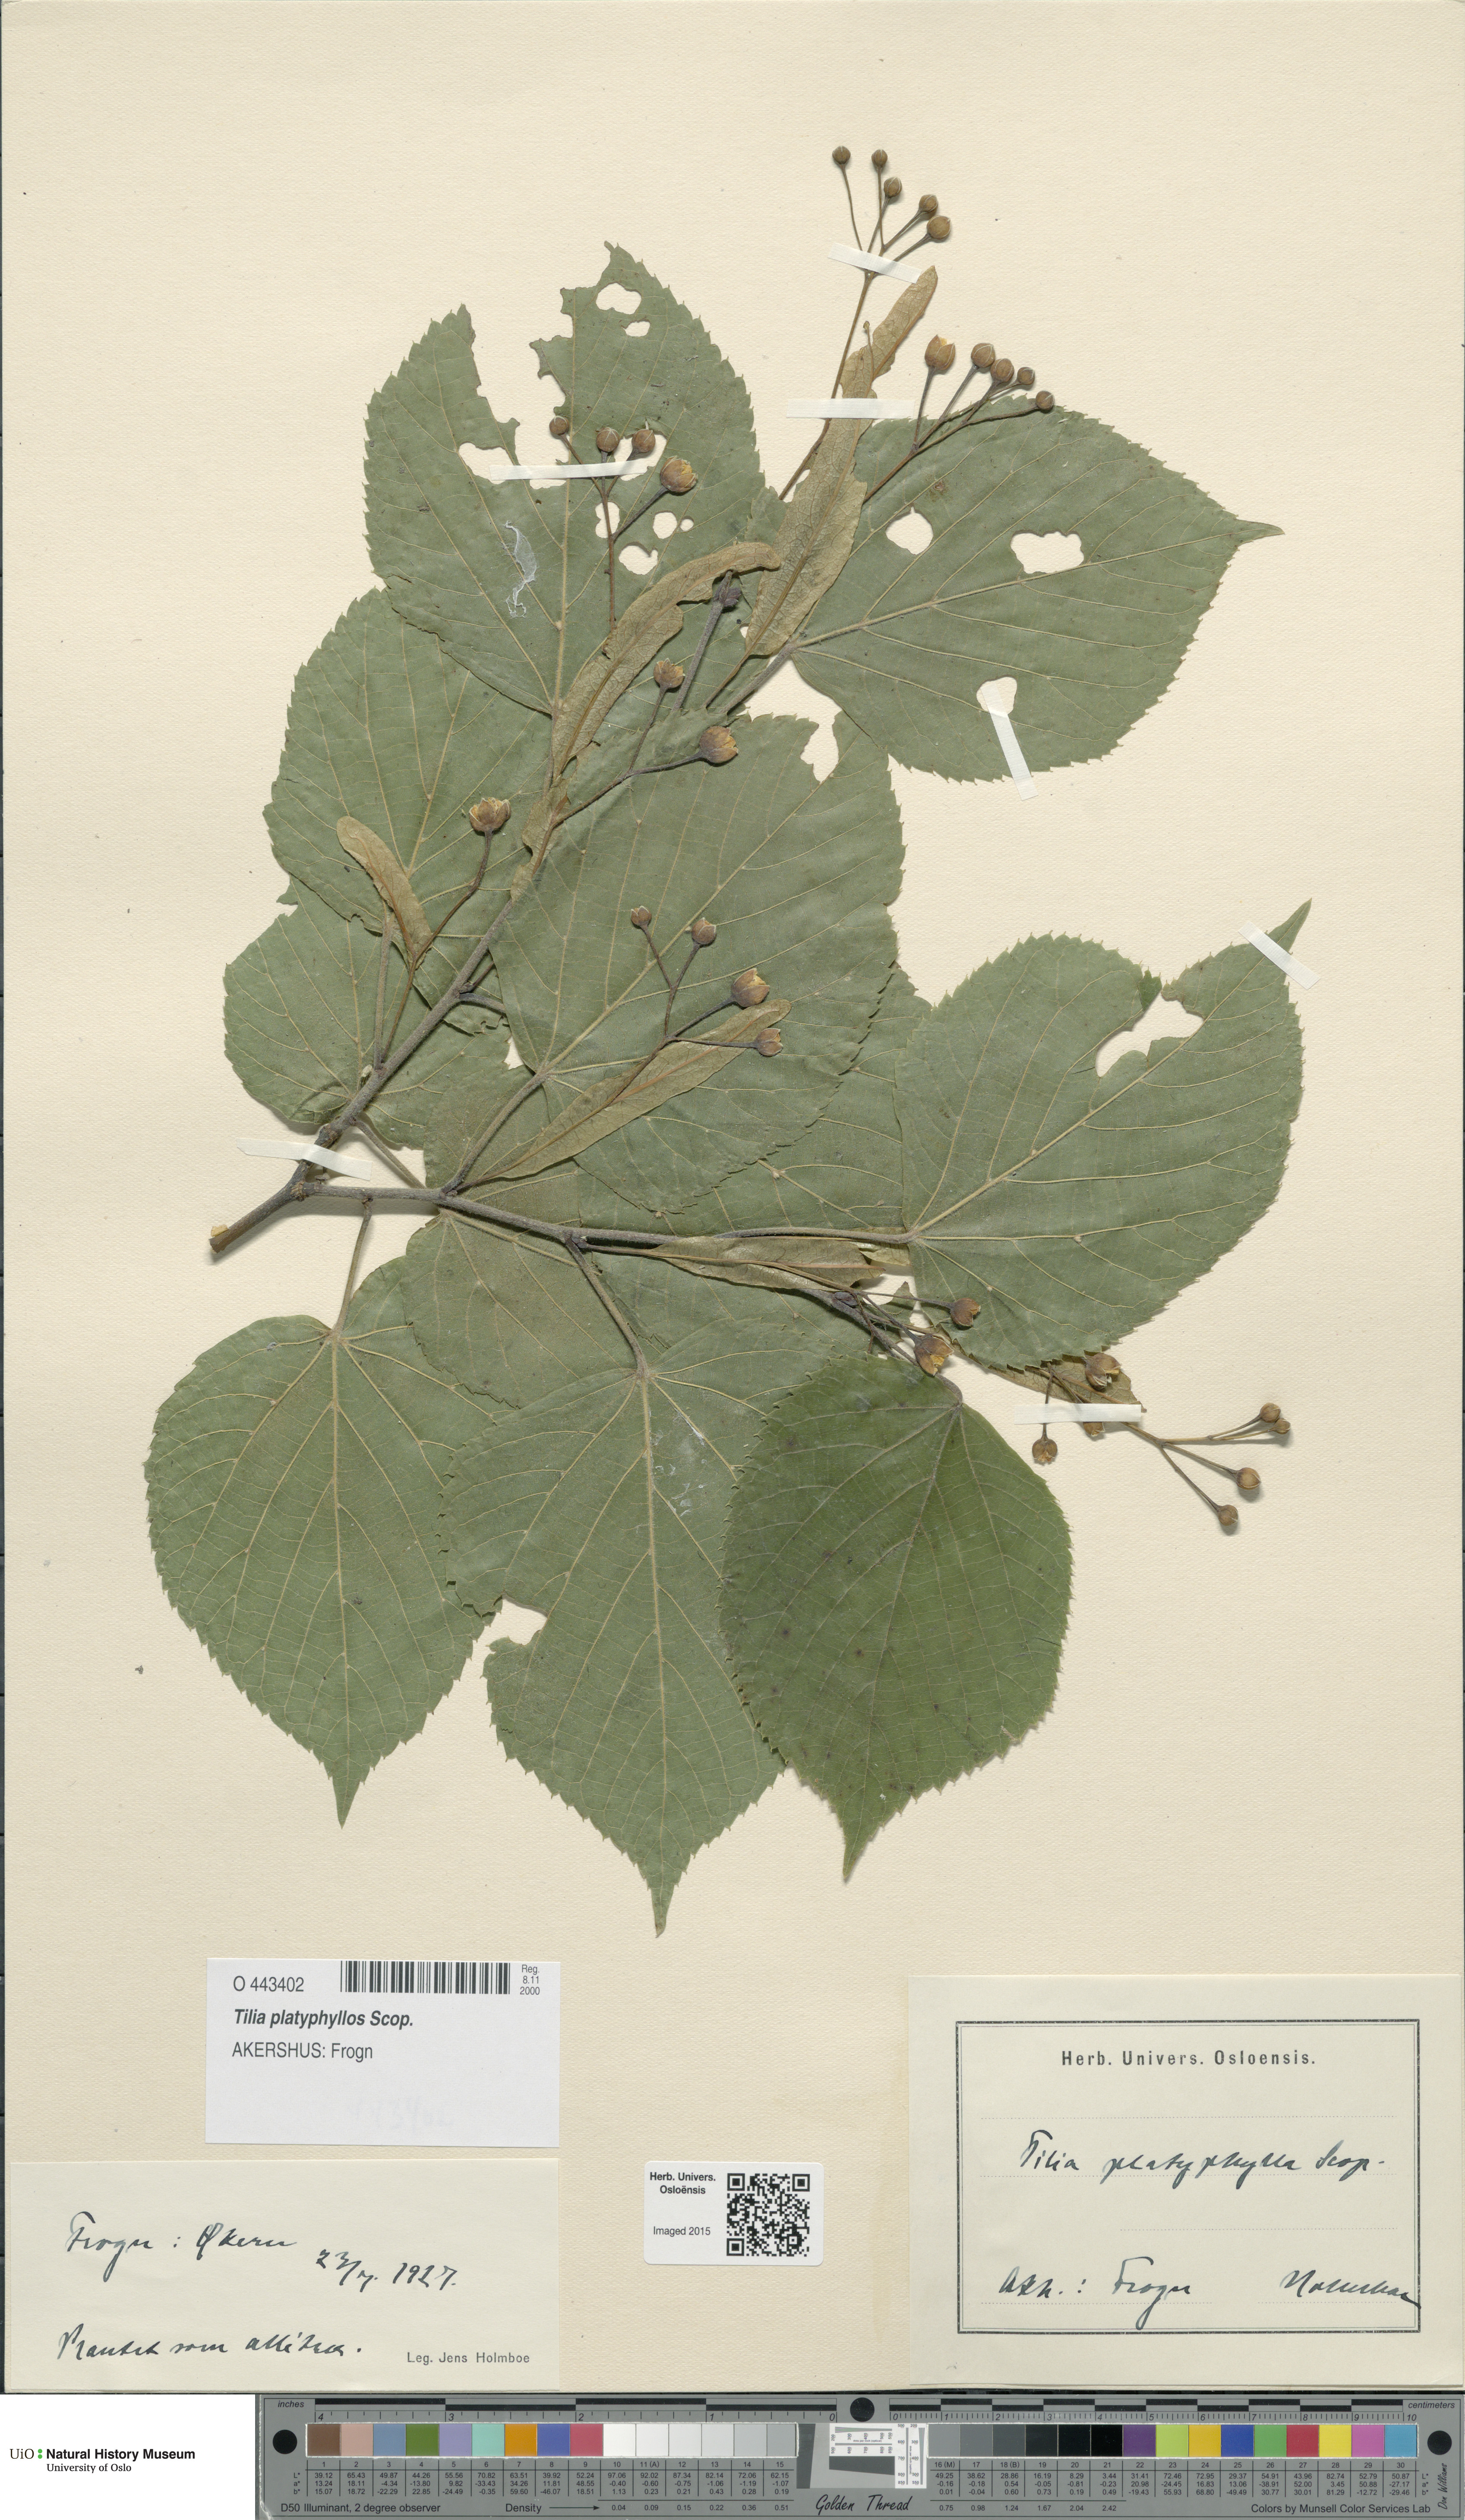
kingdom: Plantae
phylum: Tracheophyta
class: Magnoliopsida
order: Malvales
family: Malvaceae
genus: Tilia
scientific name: Tilia platyphyllos
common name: Large-leaved lime
